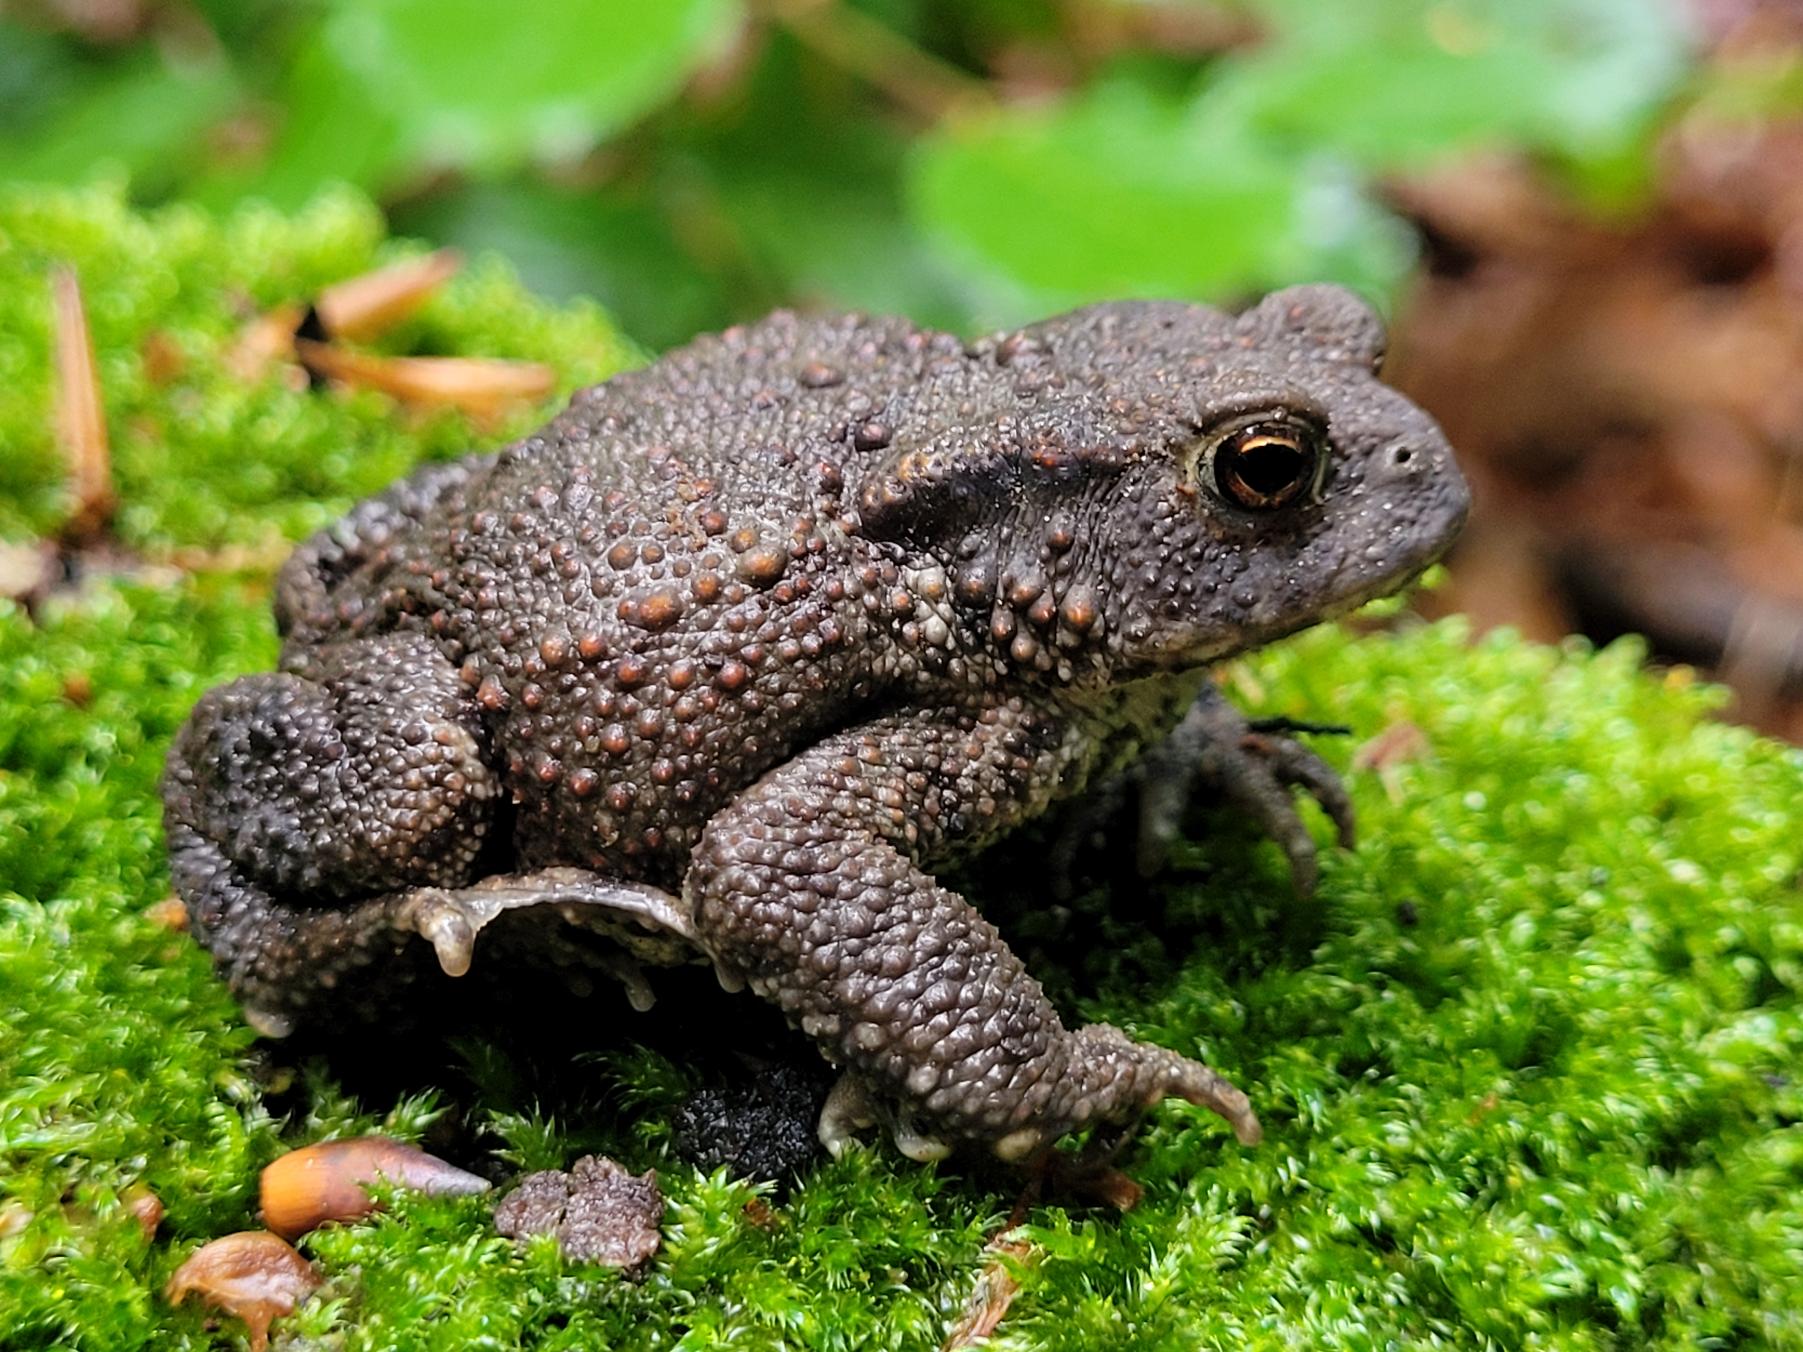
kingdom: Animalia
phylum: Chordata
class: Amphibia
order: Anura
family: Bufonidae
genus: Bufo
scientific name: Bufo bufo
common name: Skrubtudse
